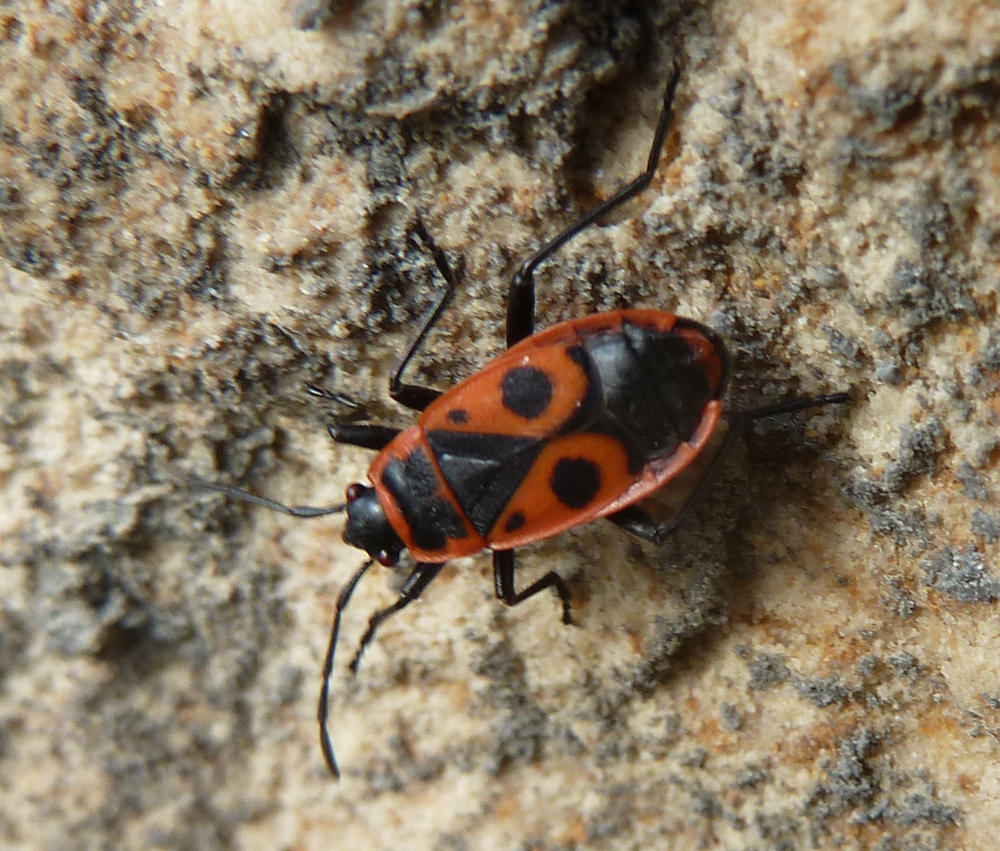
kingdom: Animalia
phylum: Arthropoda
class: Insecta
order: Hemiptera
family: Pyrrhocoridae
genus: Pyrrhocoris
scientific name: Pyrrhocoris apterus
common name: Firebug
